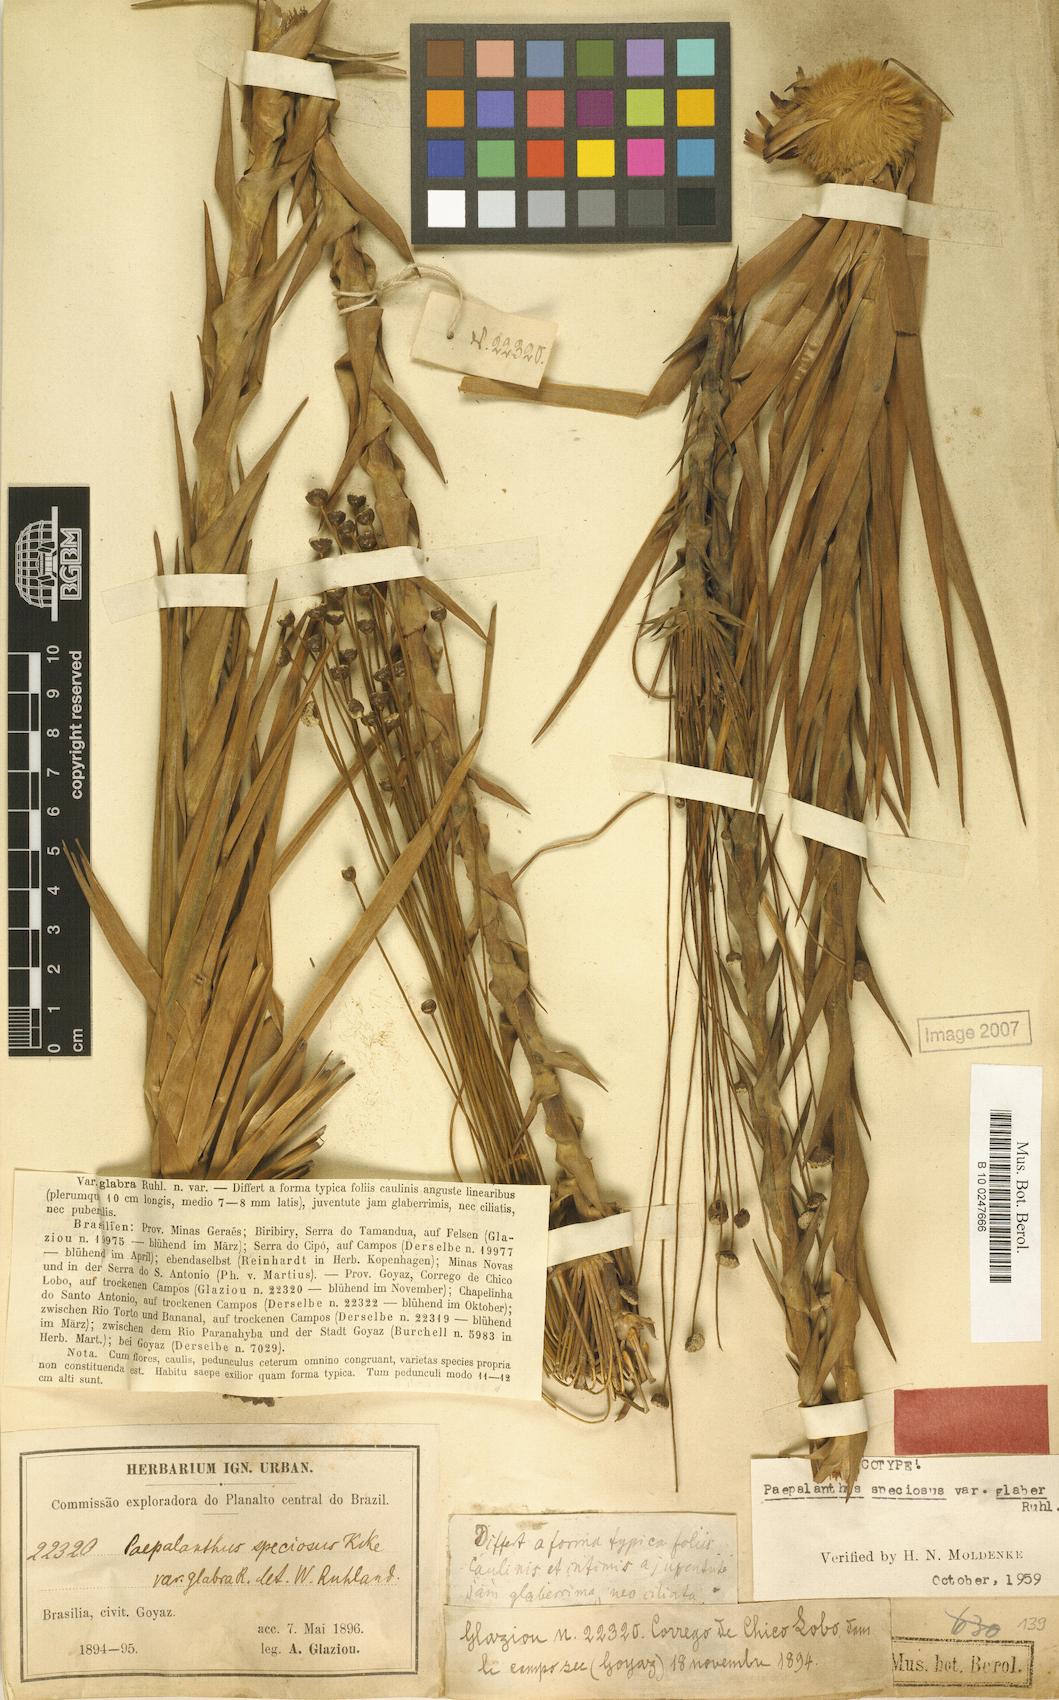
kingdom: Plantae
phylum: Tracheophyta
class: Liliopsida
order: Poales
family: Eriocaulaceae
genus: Paepalanthus
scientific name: Paepalanthus chiquitensis
